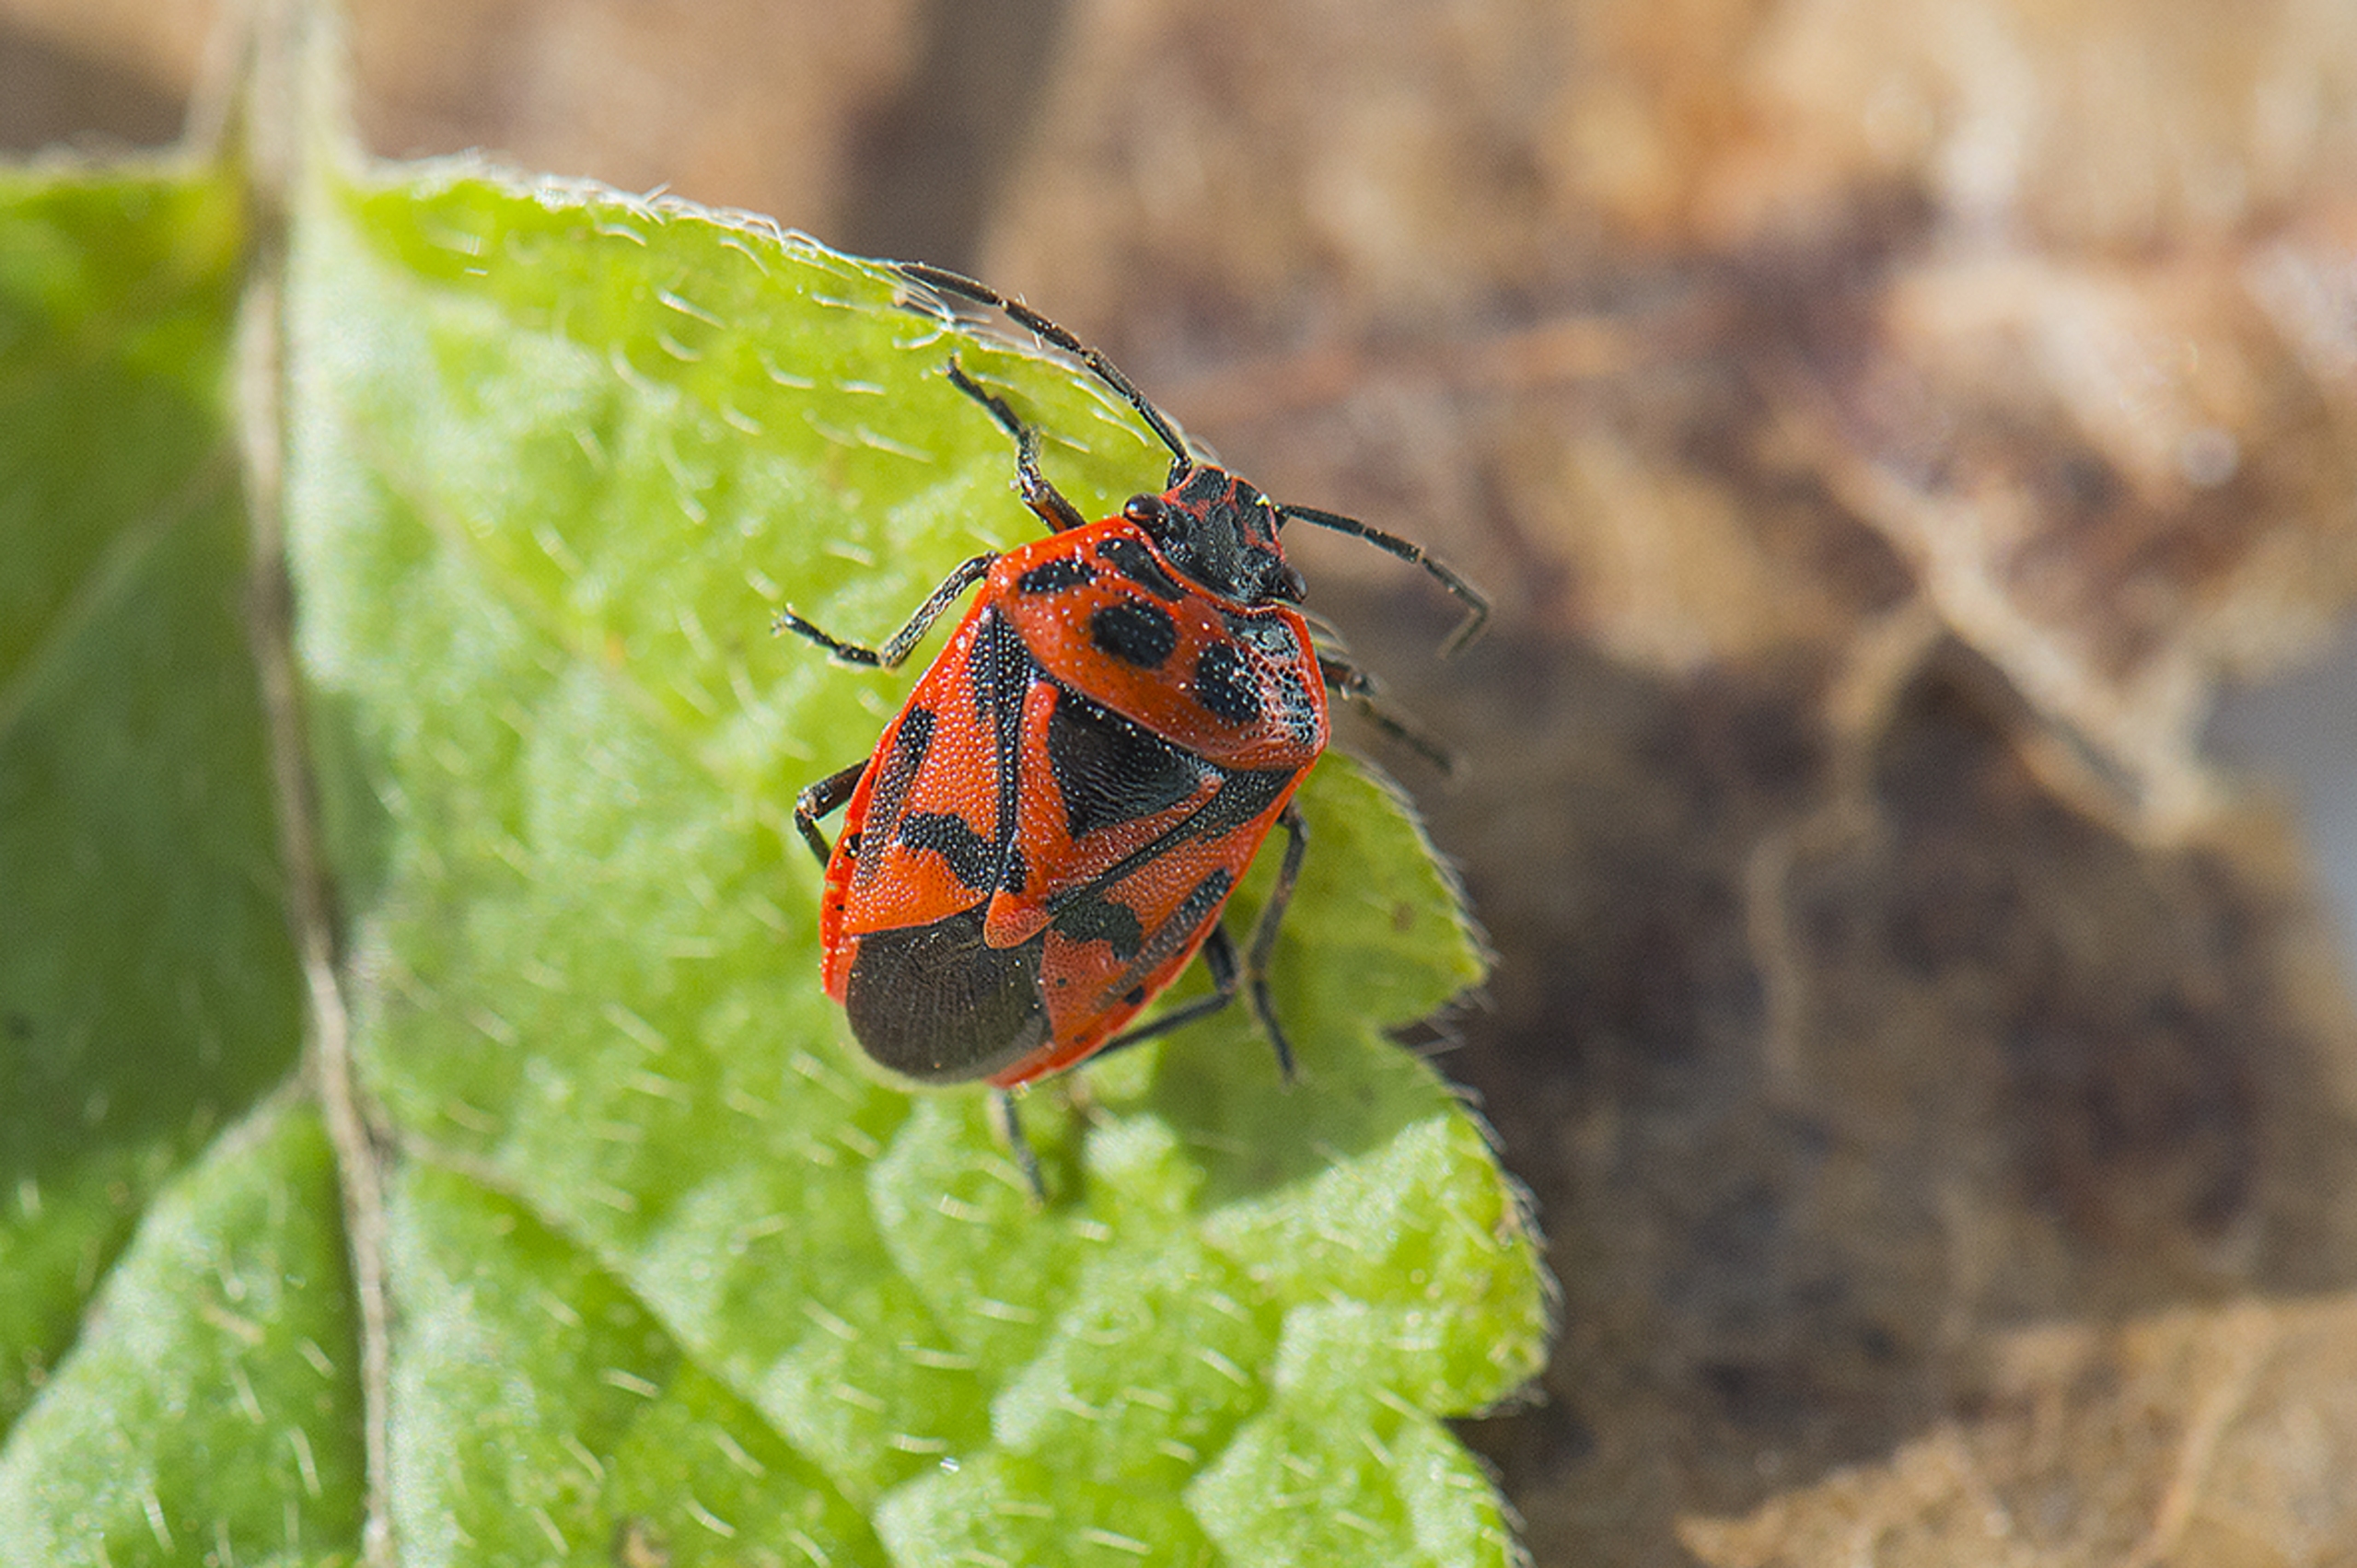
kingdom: Animalia
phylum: Arthropoda
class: Insecta
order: Hemiptera
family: Pentatomidae
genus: Eurydema
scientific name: Eurydema ornata
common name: Rød kåltæge
